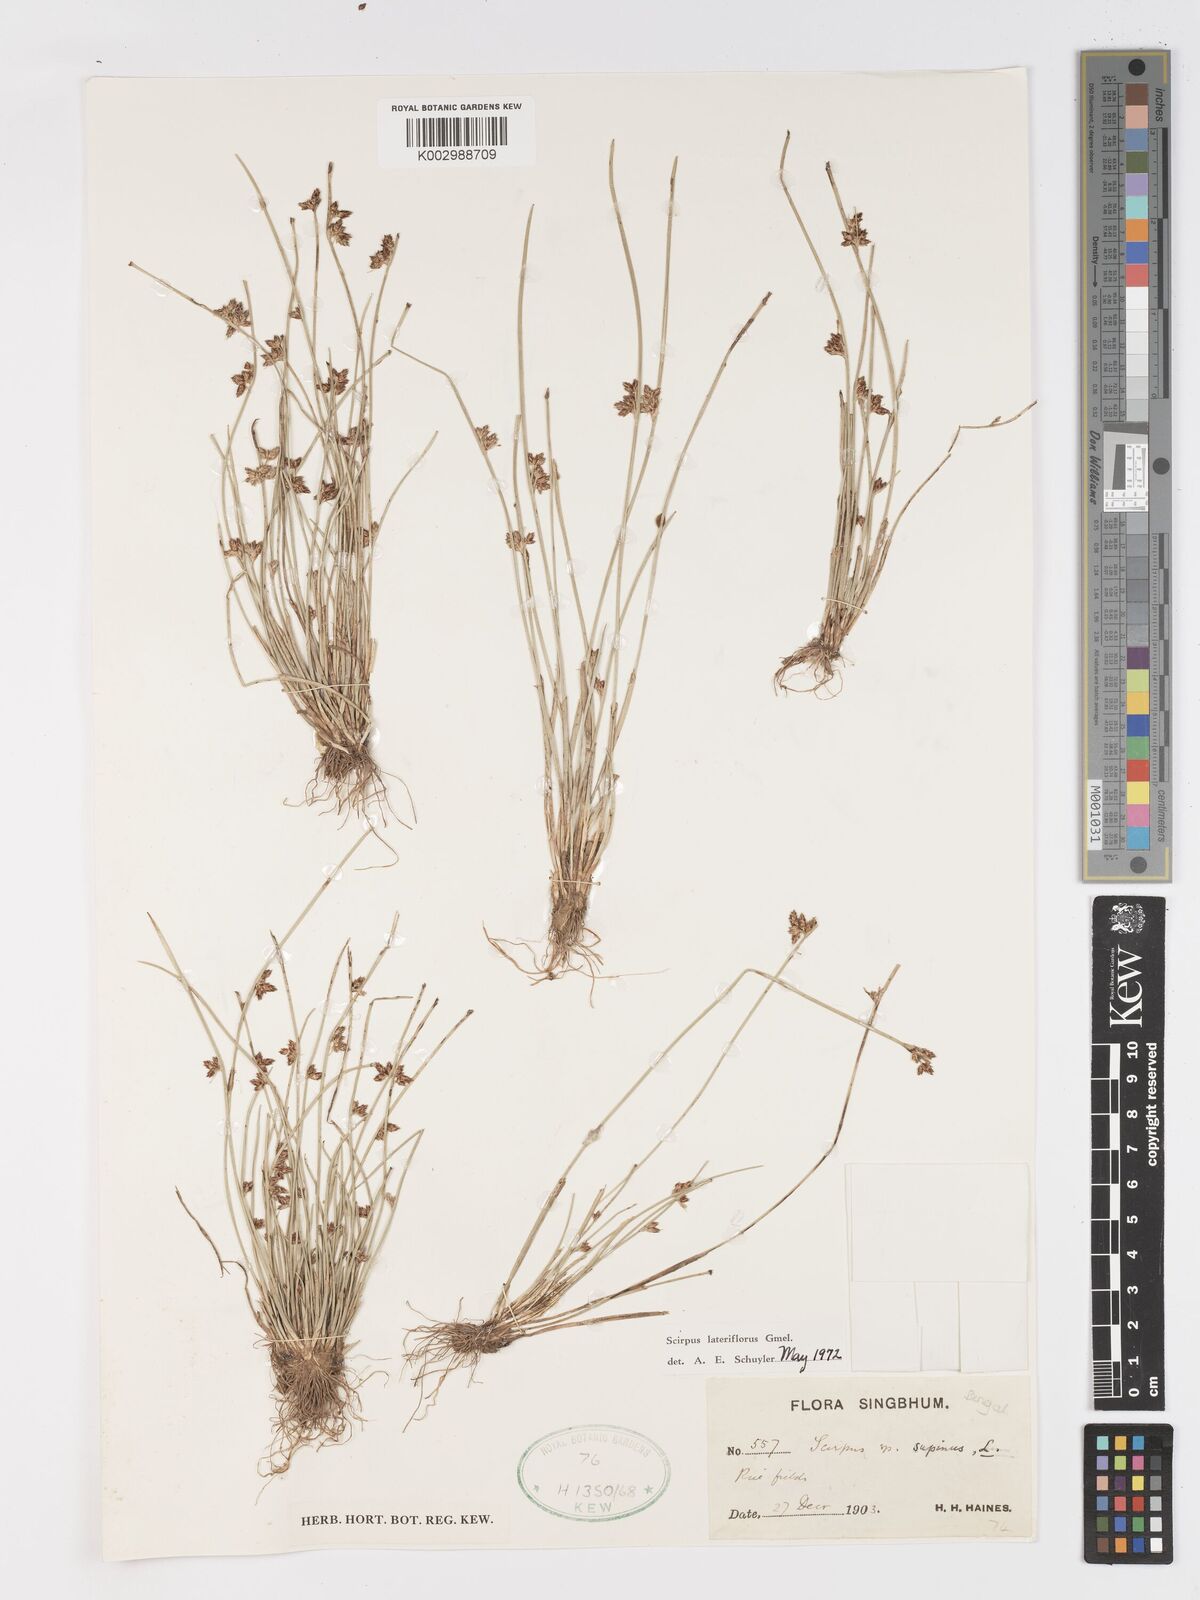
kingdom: Plantae
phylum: Tracheophyta
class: Liliopsida
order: Poales
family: Cyperaceae
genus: Schoenoplectiella
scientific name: Schoenoplectiella lateriflora
